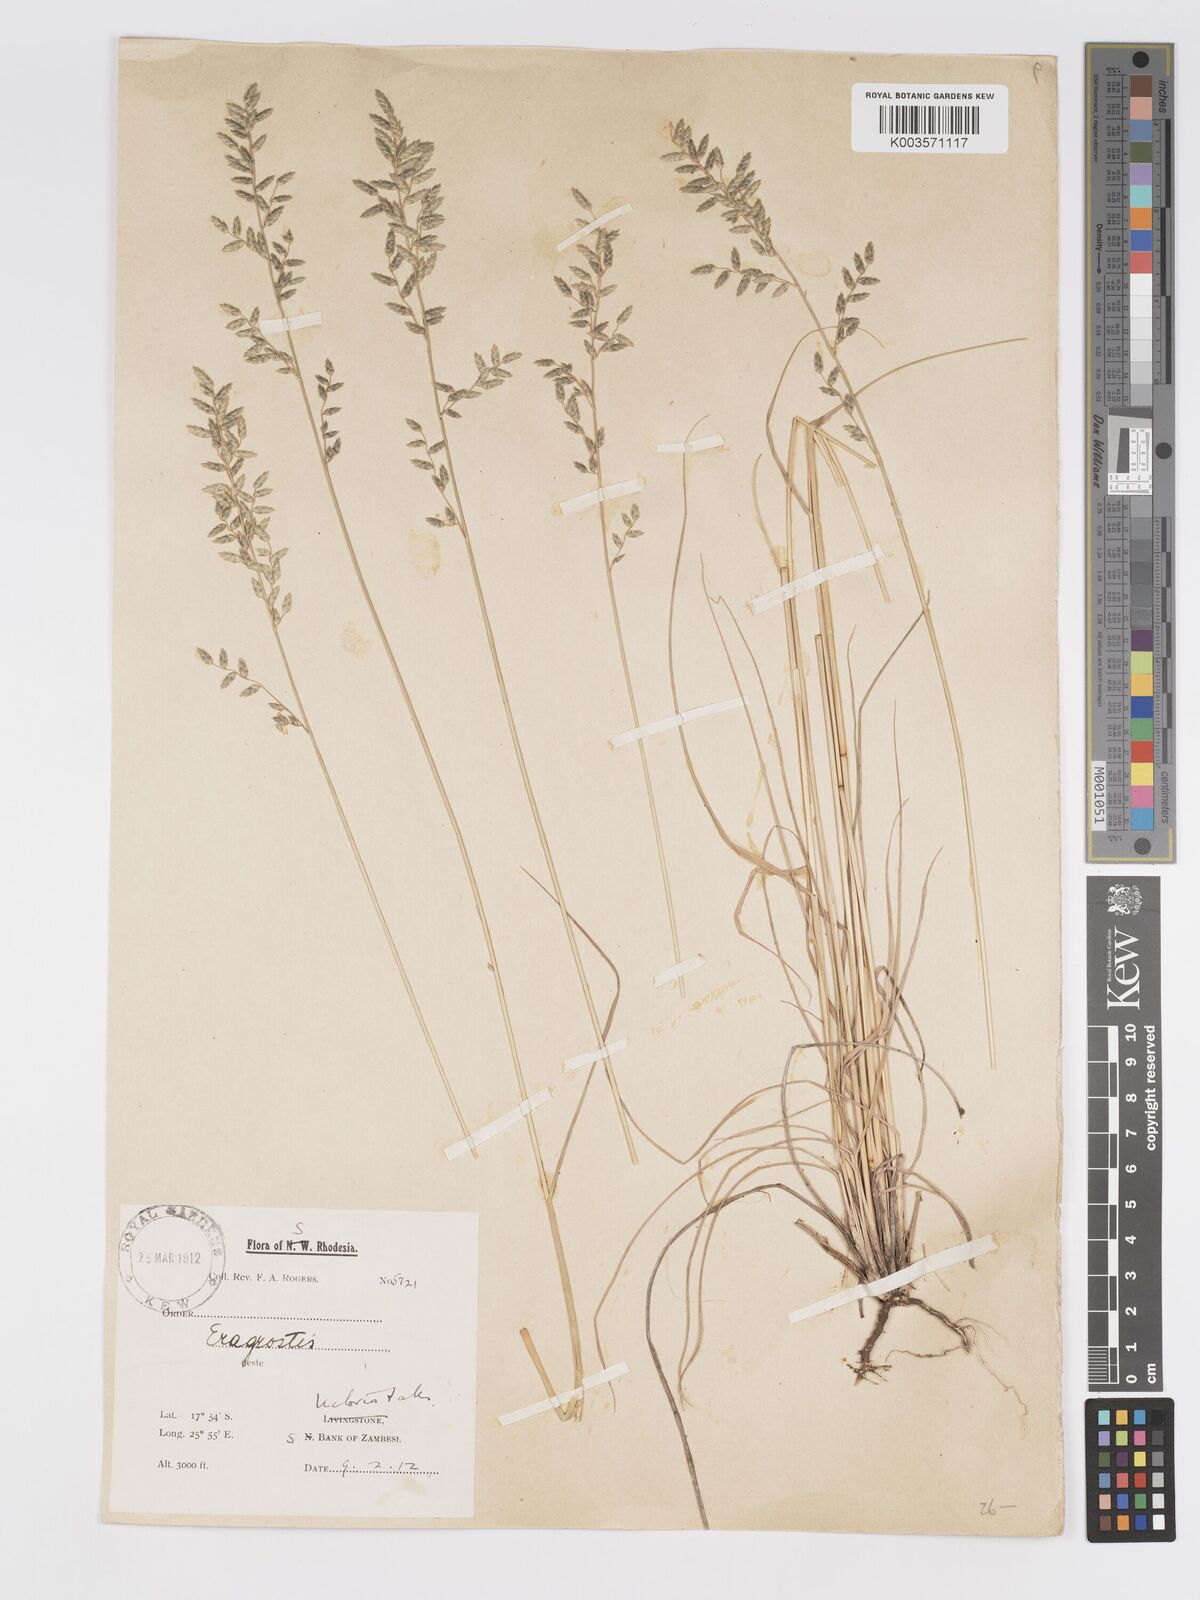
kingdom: Plantae
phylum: Tracheophyta
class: Liliopsida
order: Poales
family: Poaceae
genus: Eragrostis
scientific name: Eragrostis nindensis
